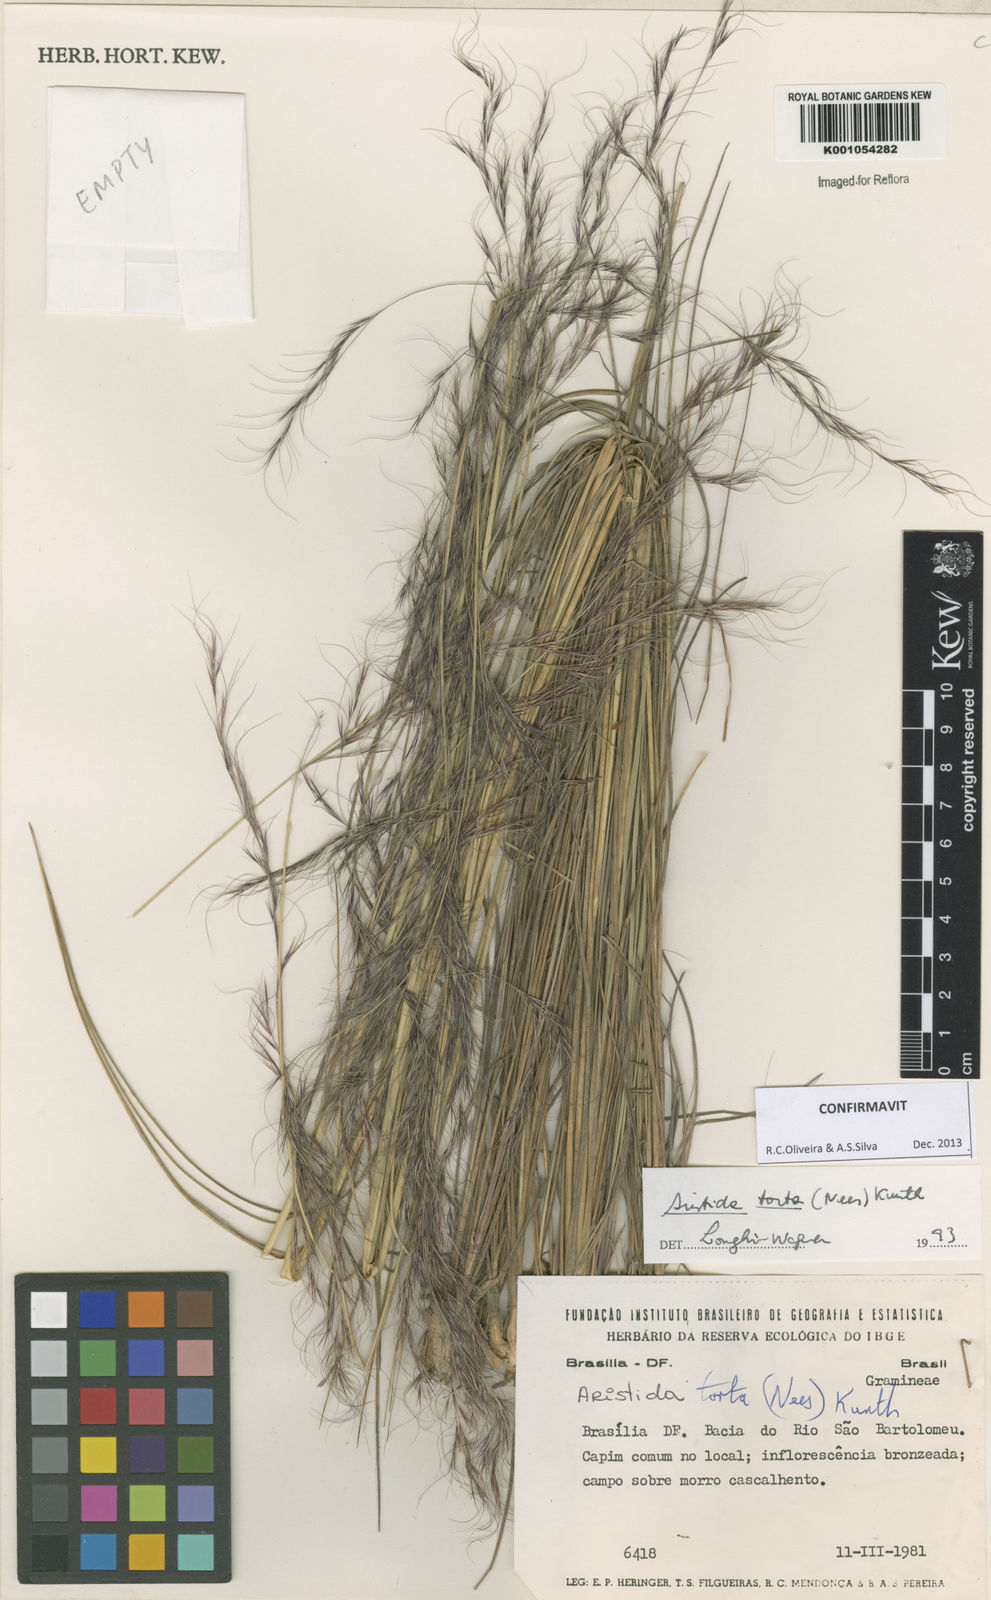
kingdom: Plantae
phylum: Tracheophyta
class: Liliopsida
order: Poales
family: Poaceae
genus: Aristida
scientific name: Aristida torta
